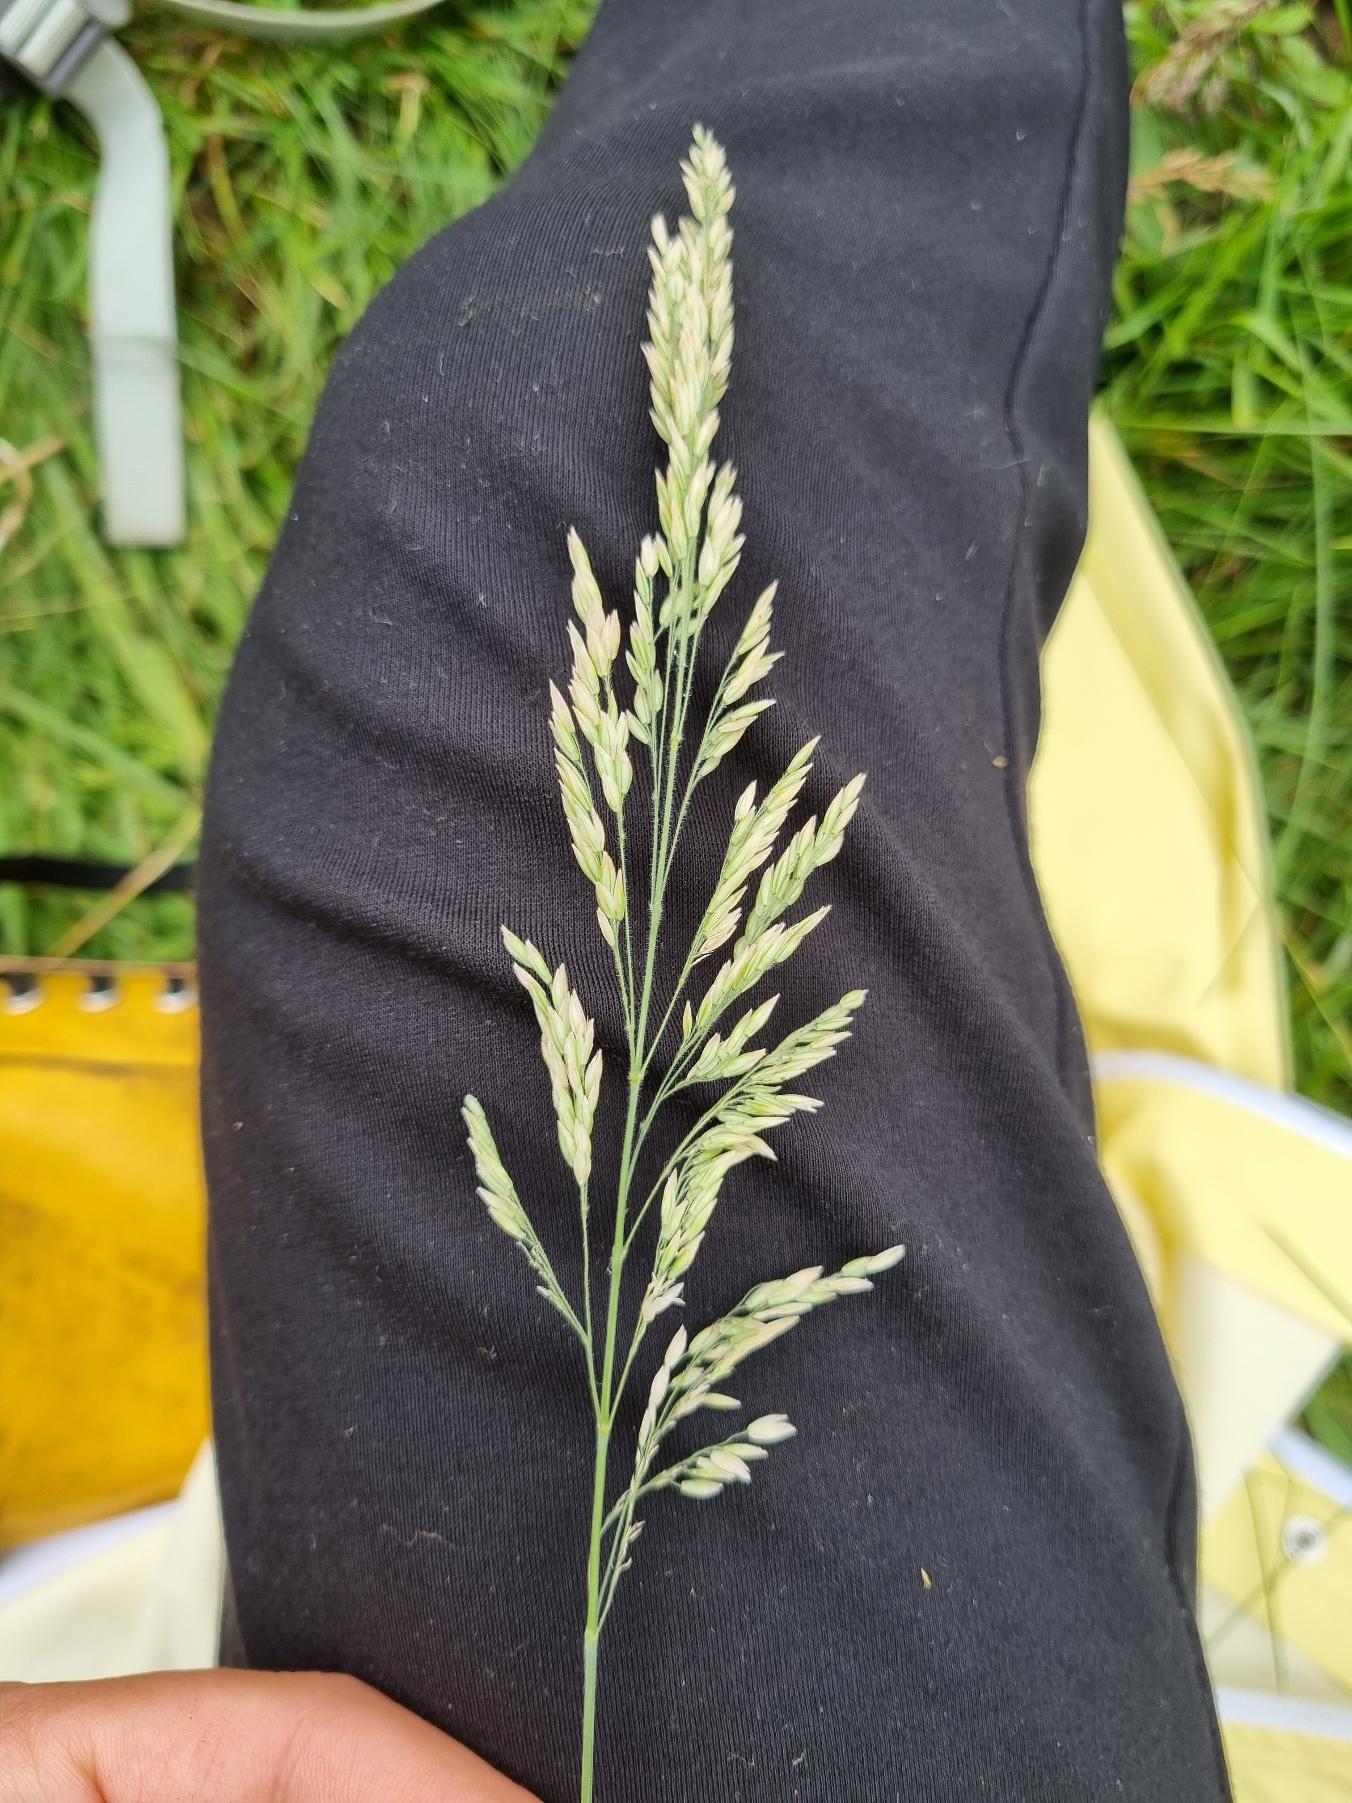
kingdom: Plantae
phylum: Tracheophyta
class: Liliopsida
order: Poales
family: Poaceae
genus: Holcus
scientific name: Holcus lanatus
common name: Fløjlsgræs
